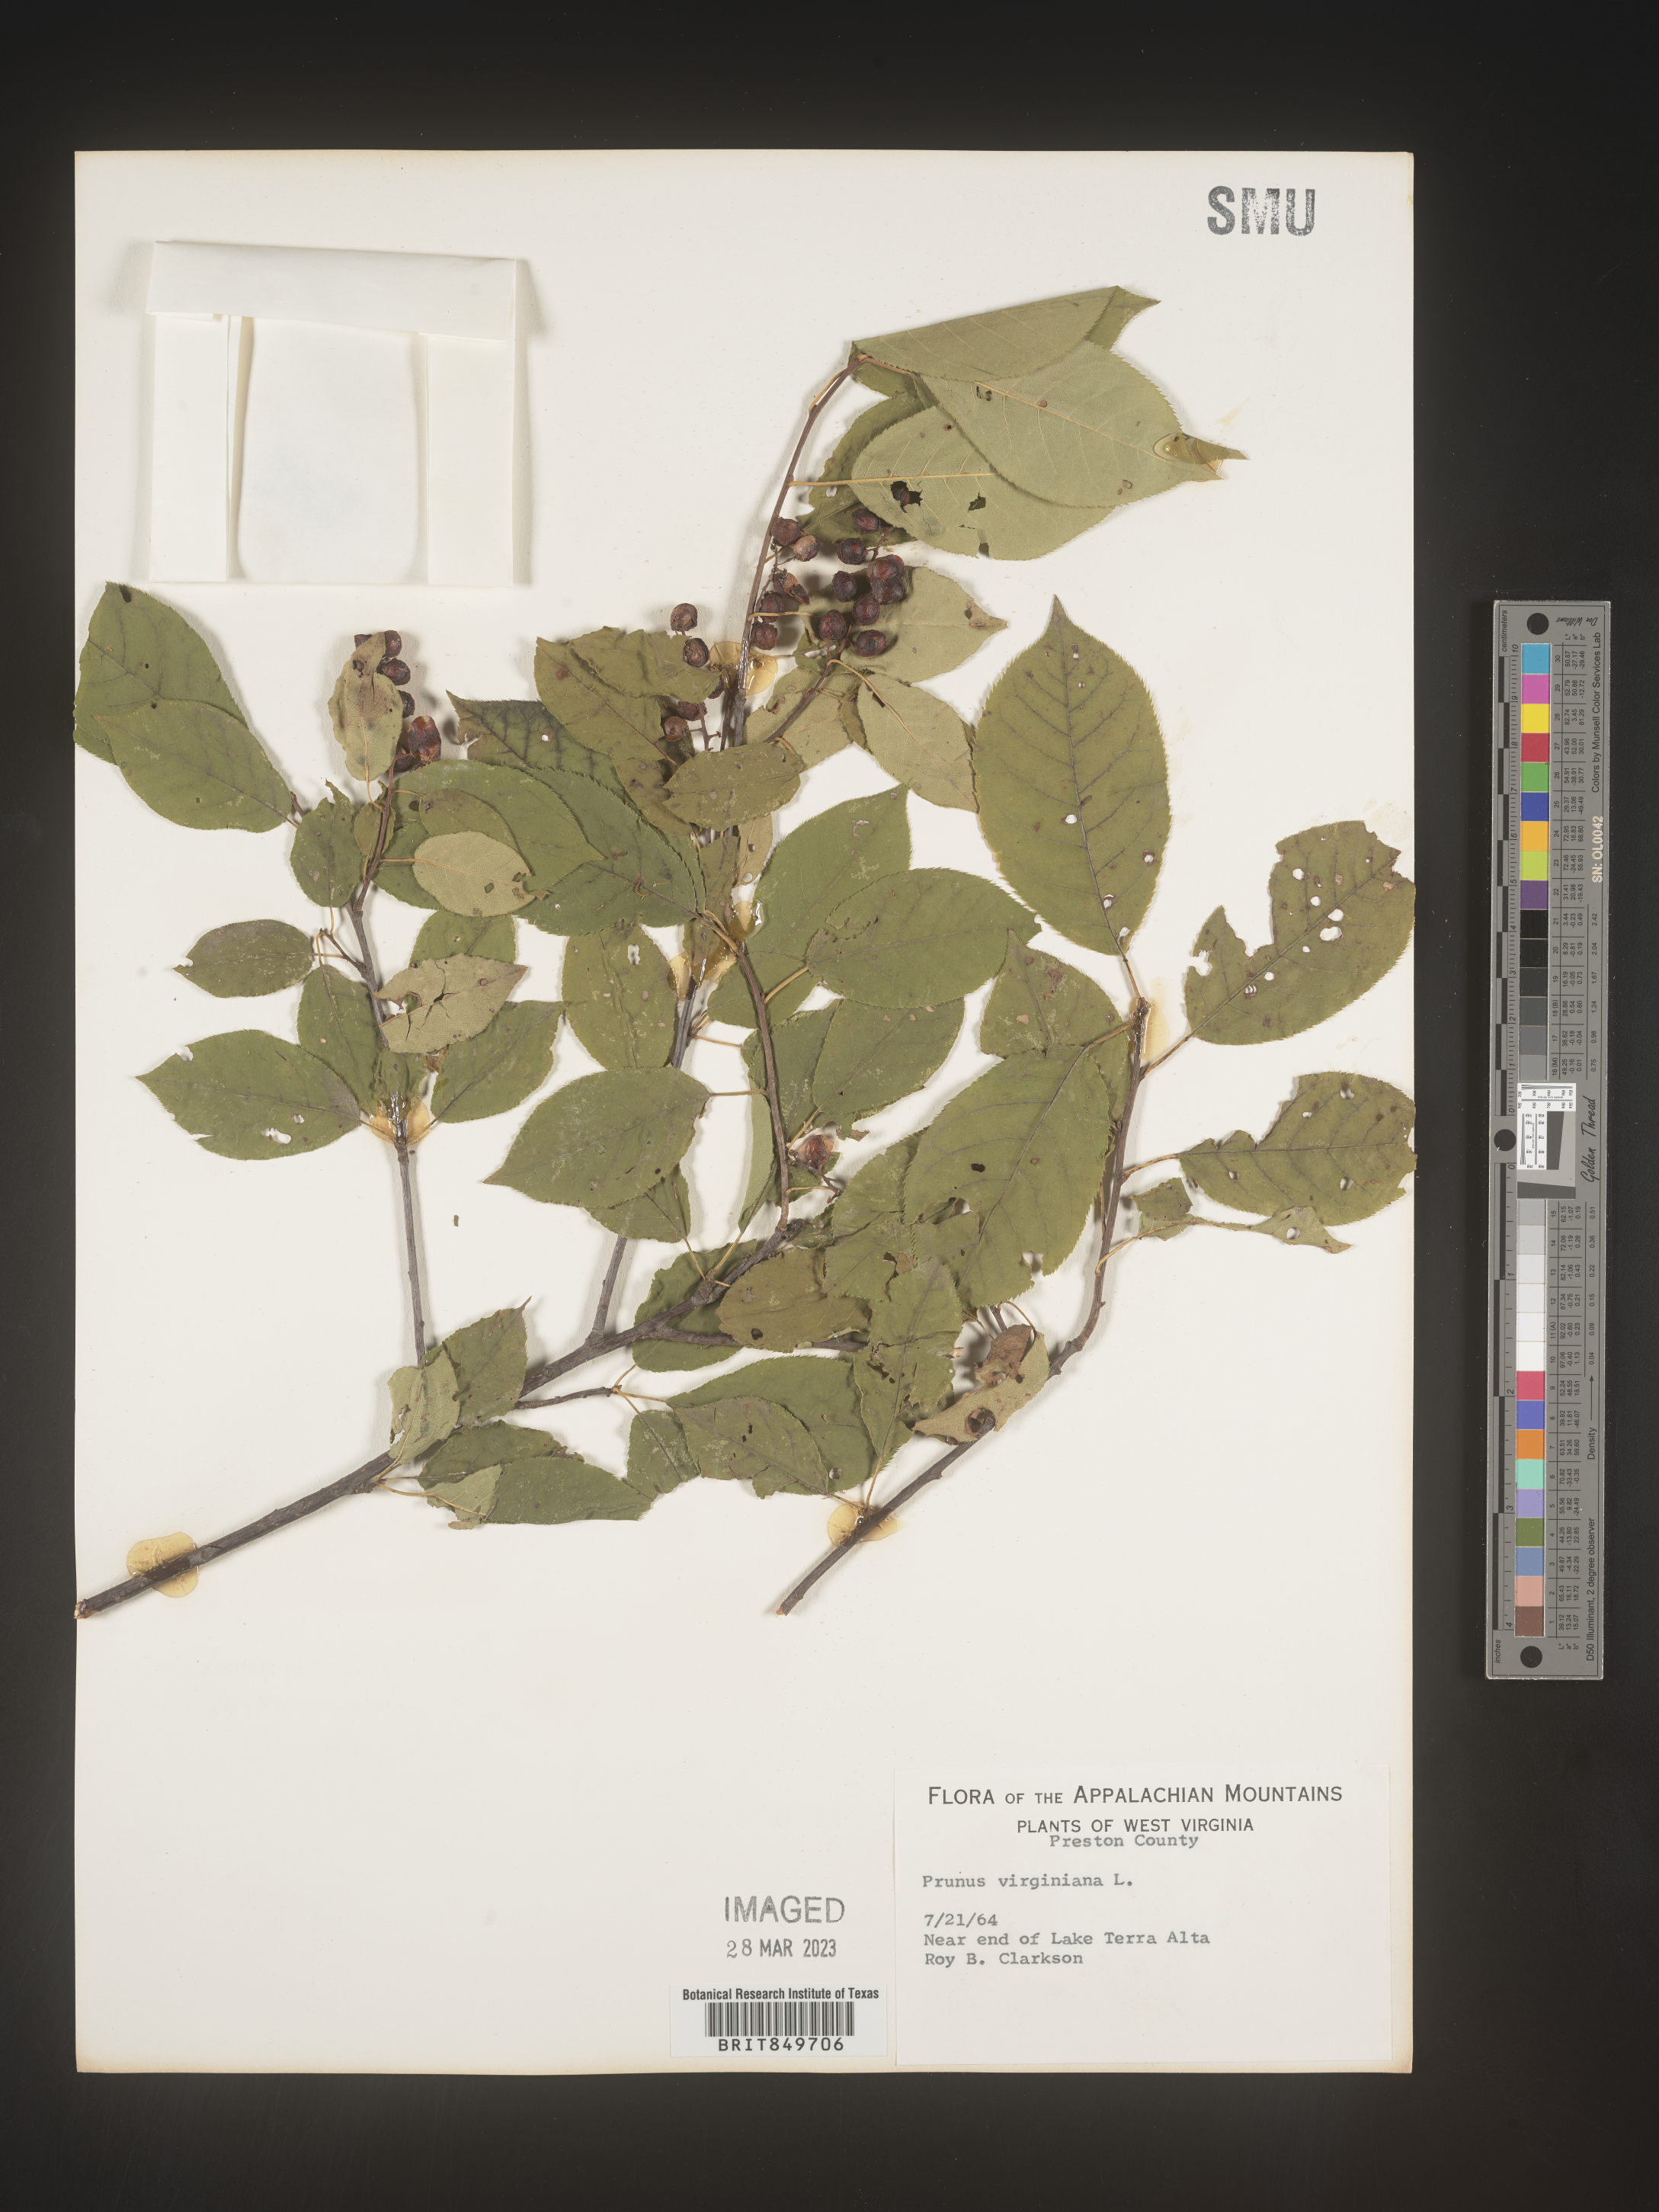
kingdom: Plantae
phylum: Tracheophyta
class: Magnoliopsida
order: Rosales
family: Rosaceae
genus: Prunus
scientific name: Prunus virginiana
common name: Chokecherry
